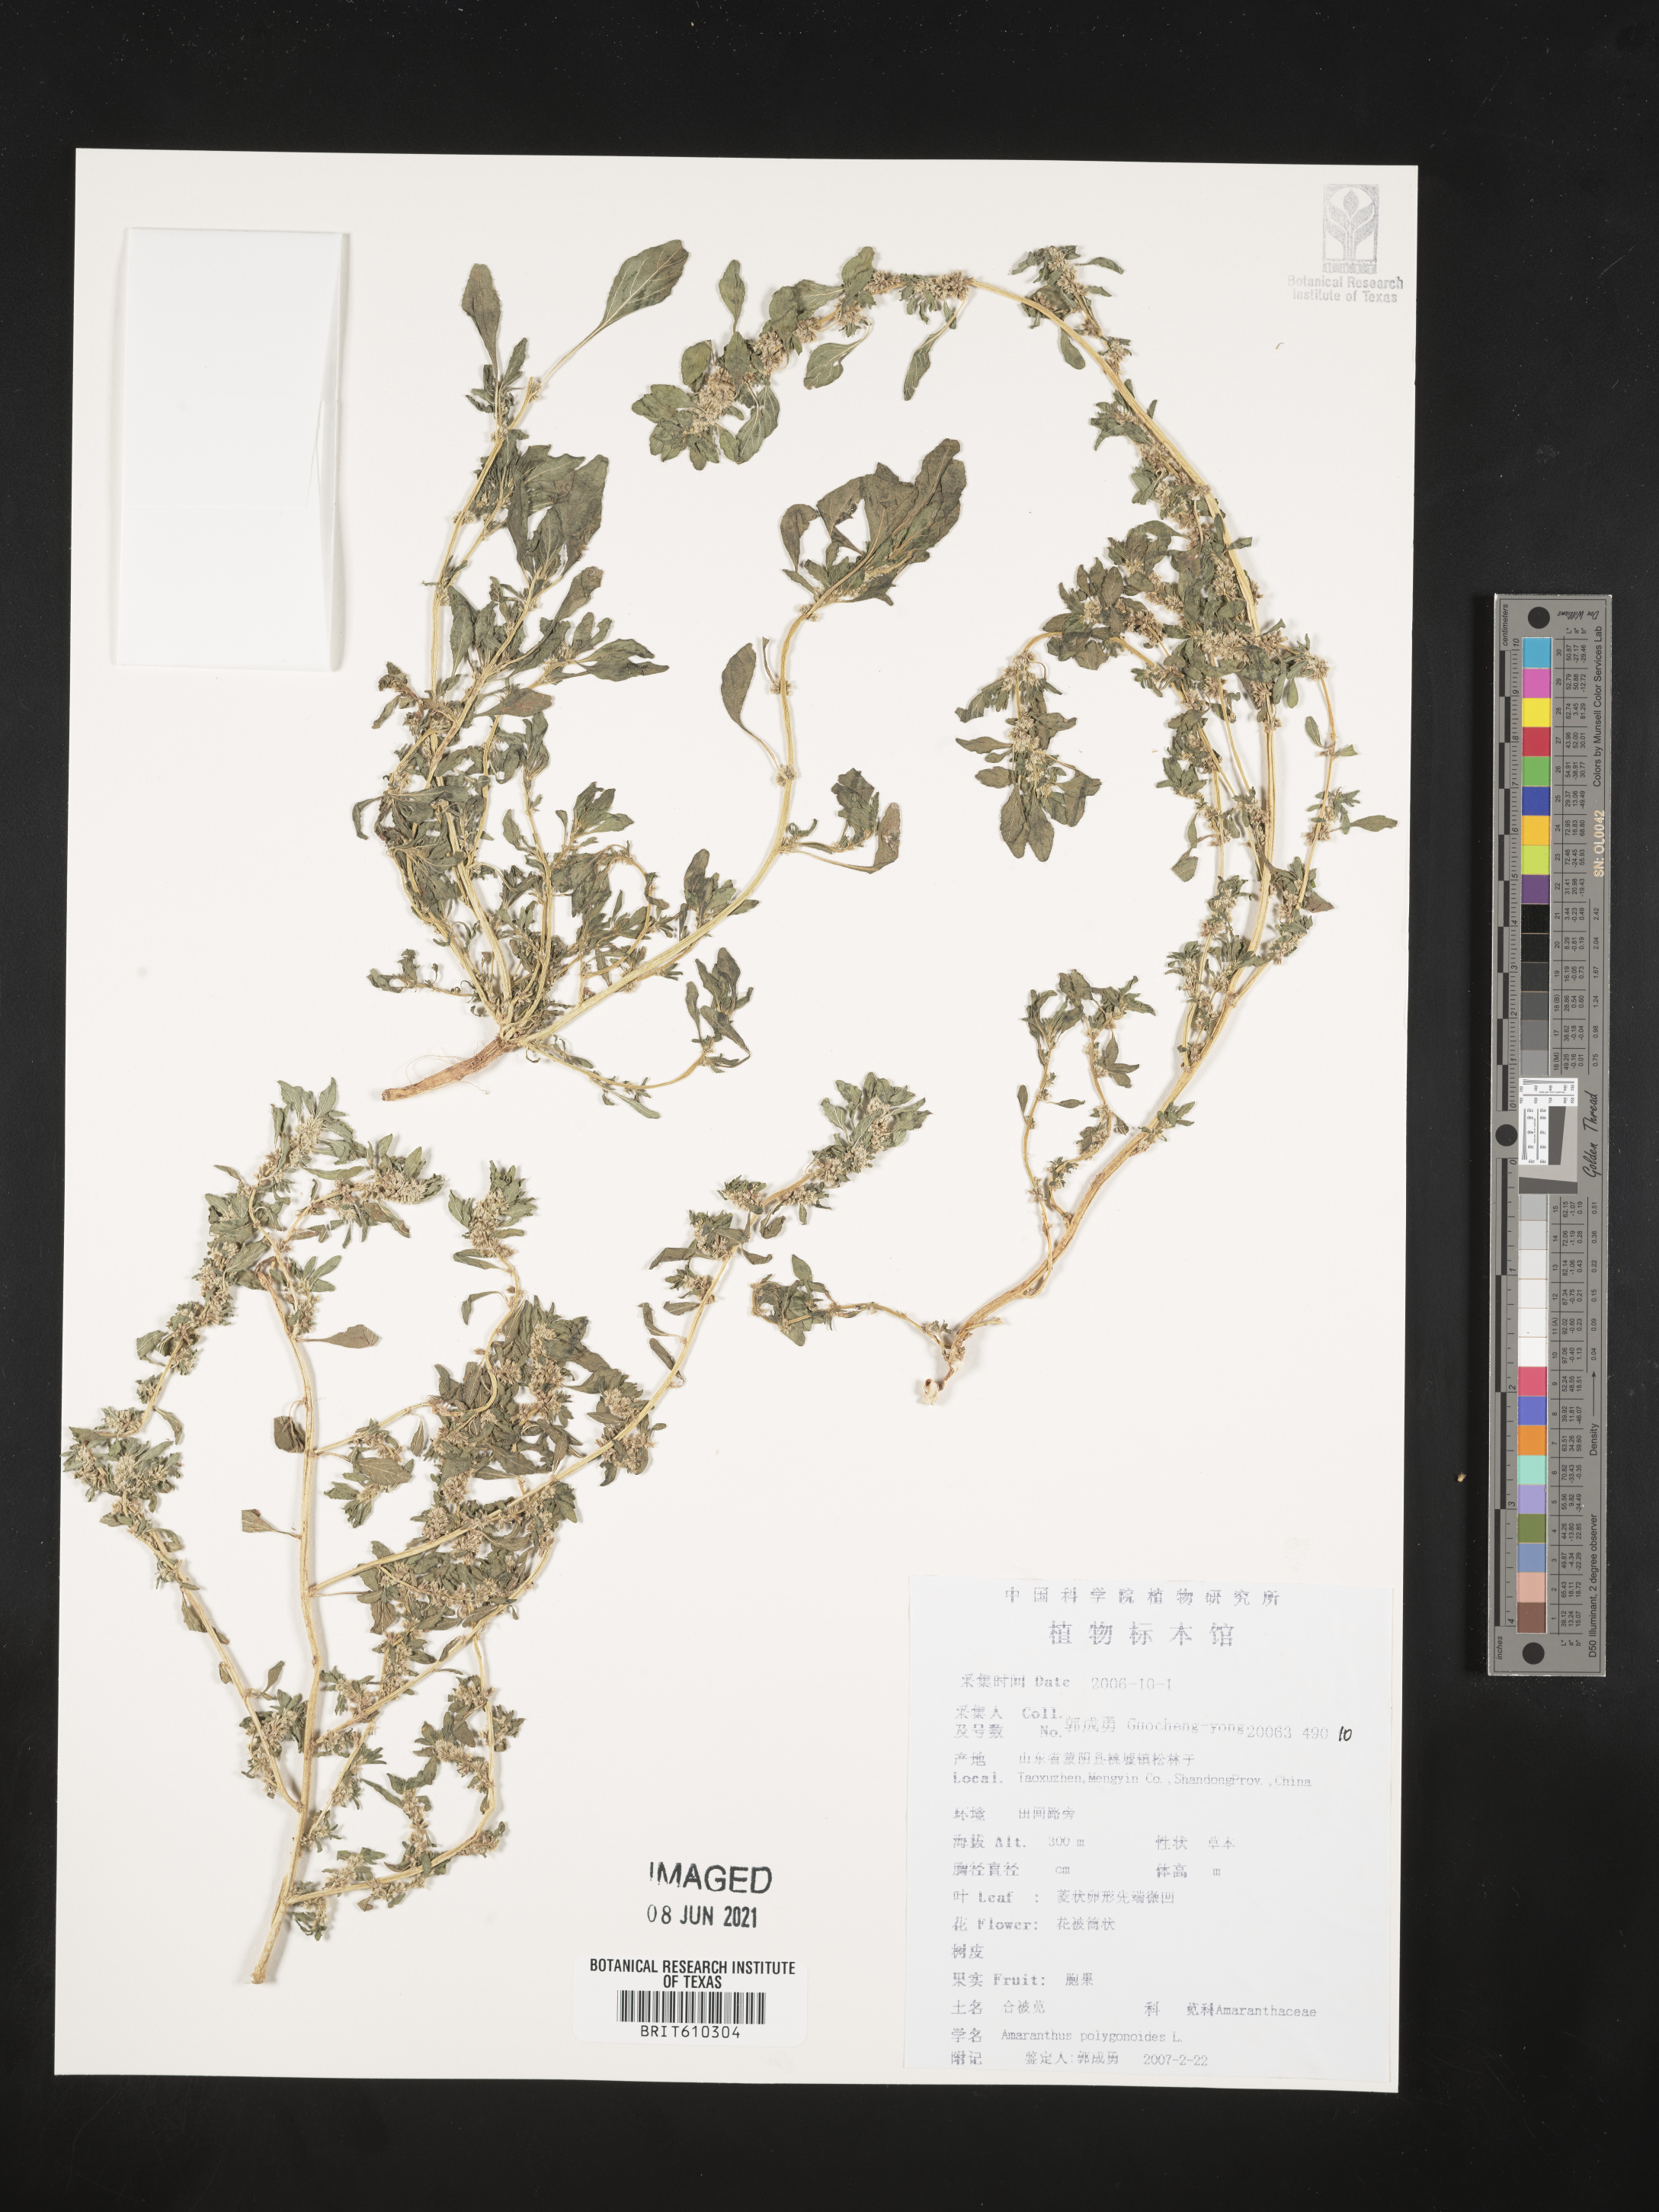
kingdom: Plantae
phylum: Tracheophyta
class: Magnoliopsida
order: Caryophyllales
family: Amaranthaceae
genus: Amaranthus
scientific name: Amaranthus polygonoides
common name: Tropical amaranth
